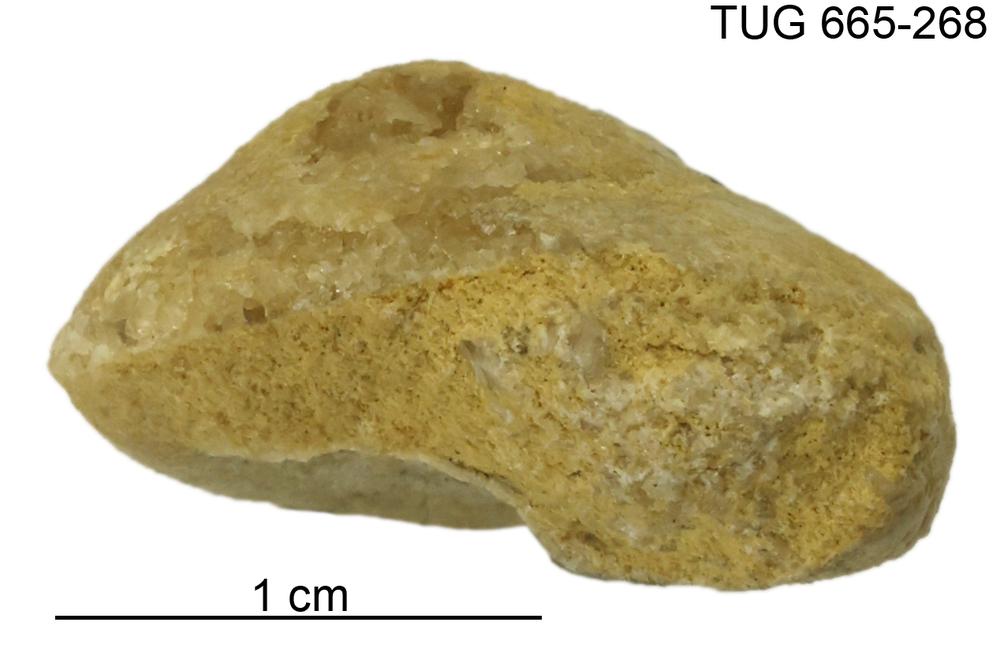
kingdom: Animalia
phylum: Mollusca
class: Gastropoda
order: Pleurotomariida
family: Planitrochidae
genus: Trochomphalus
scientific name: Trochomphalus Pycnomphalus borkholmiensis
